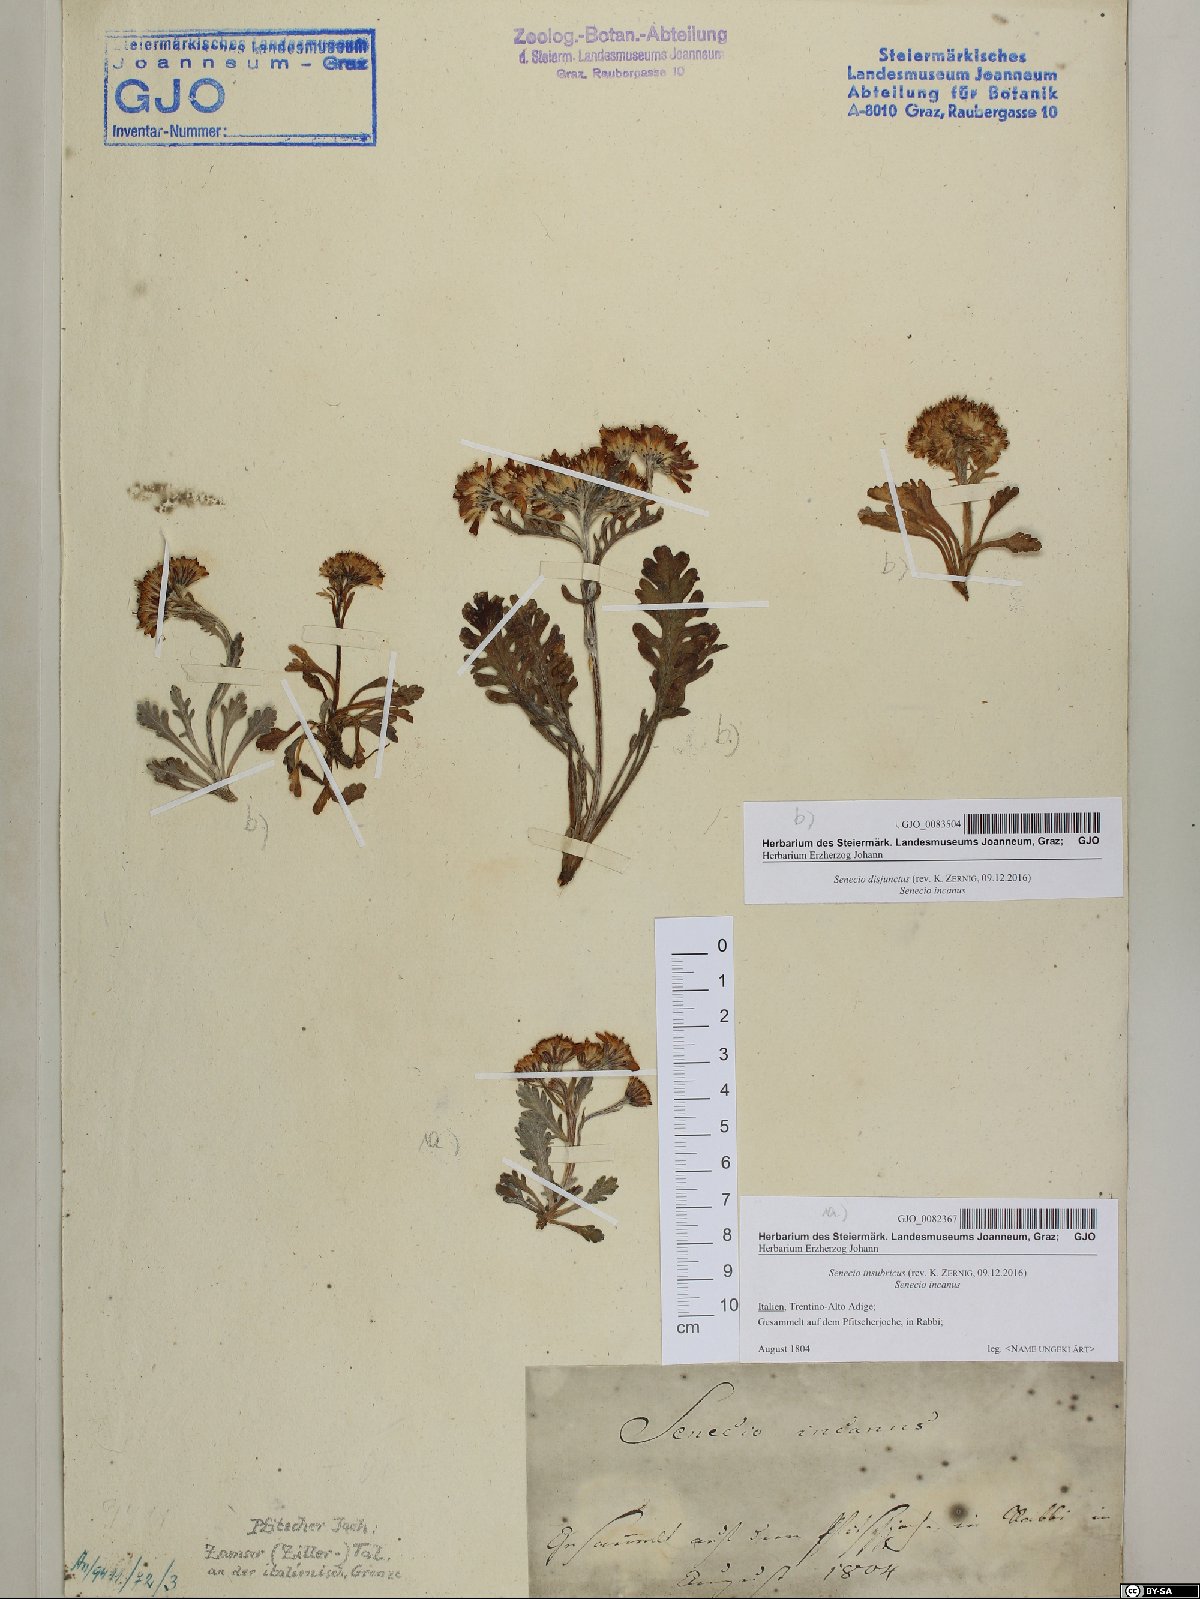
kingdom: Plantae
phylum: Tracheophyta
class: Magnoliopsida
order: Asterales
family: Asteraceae
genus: Jacobaea
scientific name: Jacobaea insubrica
